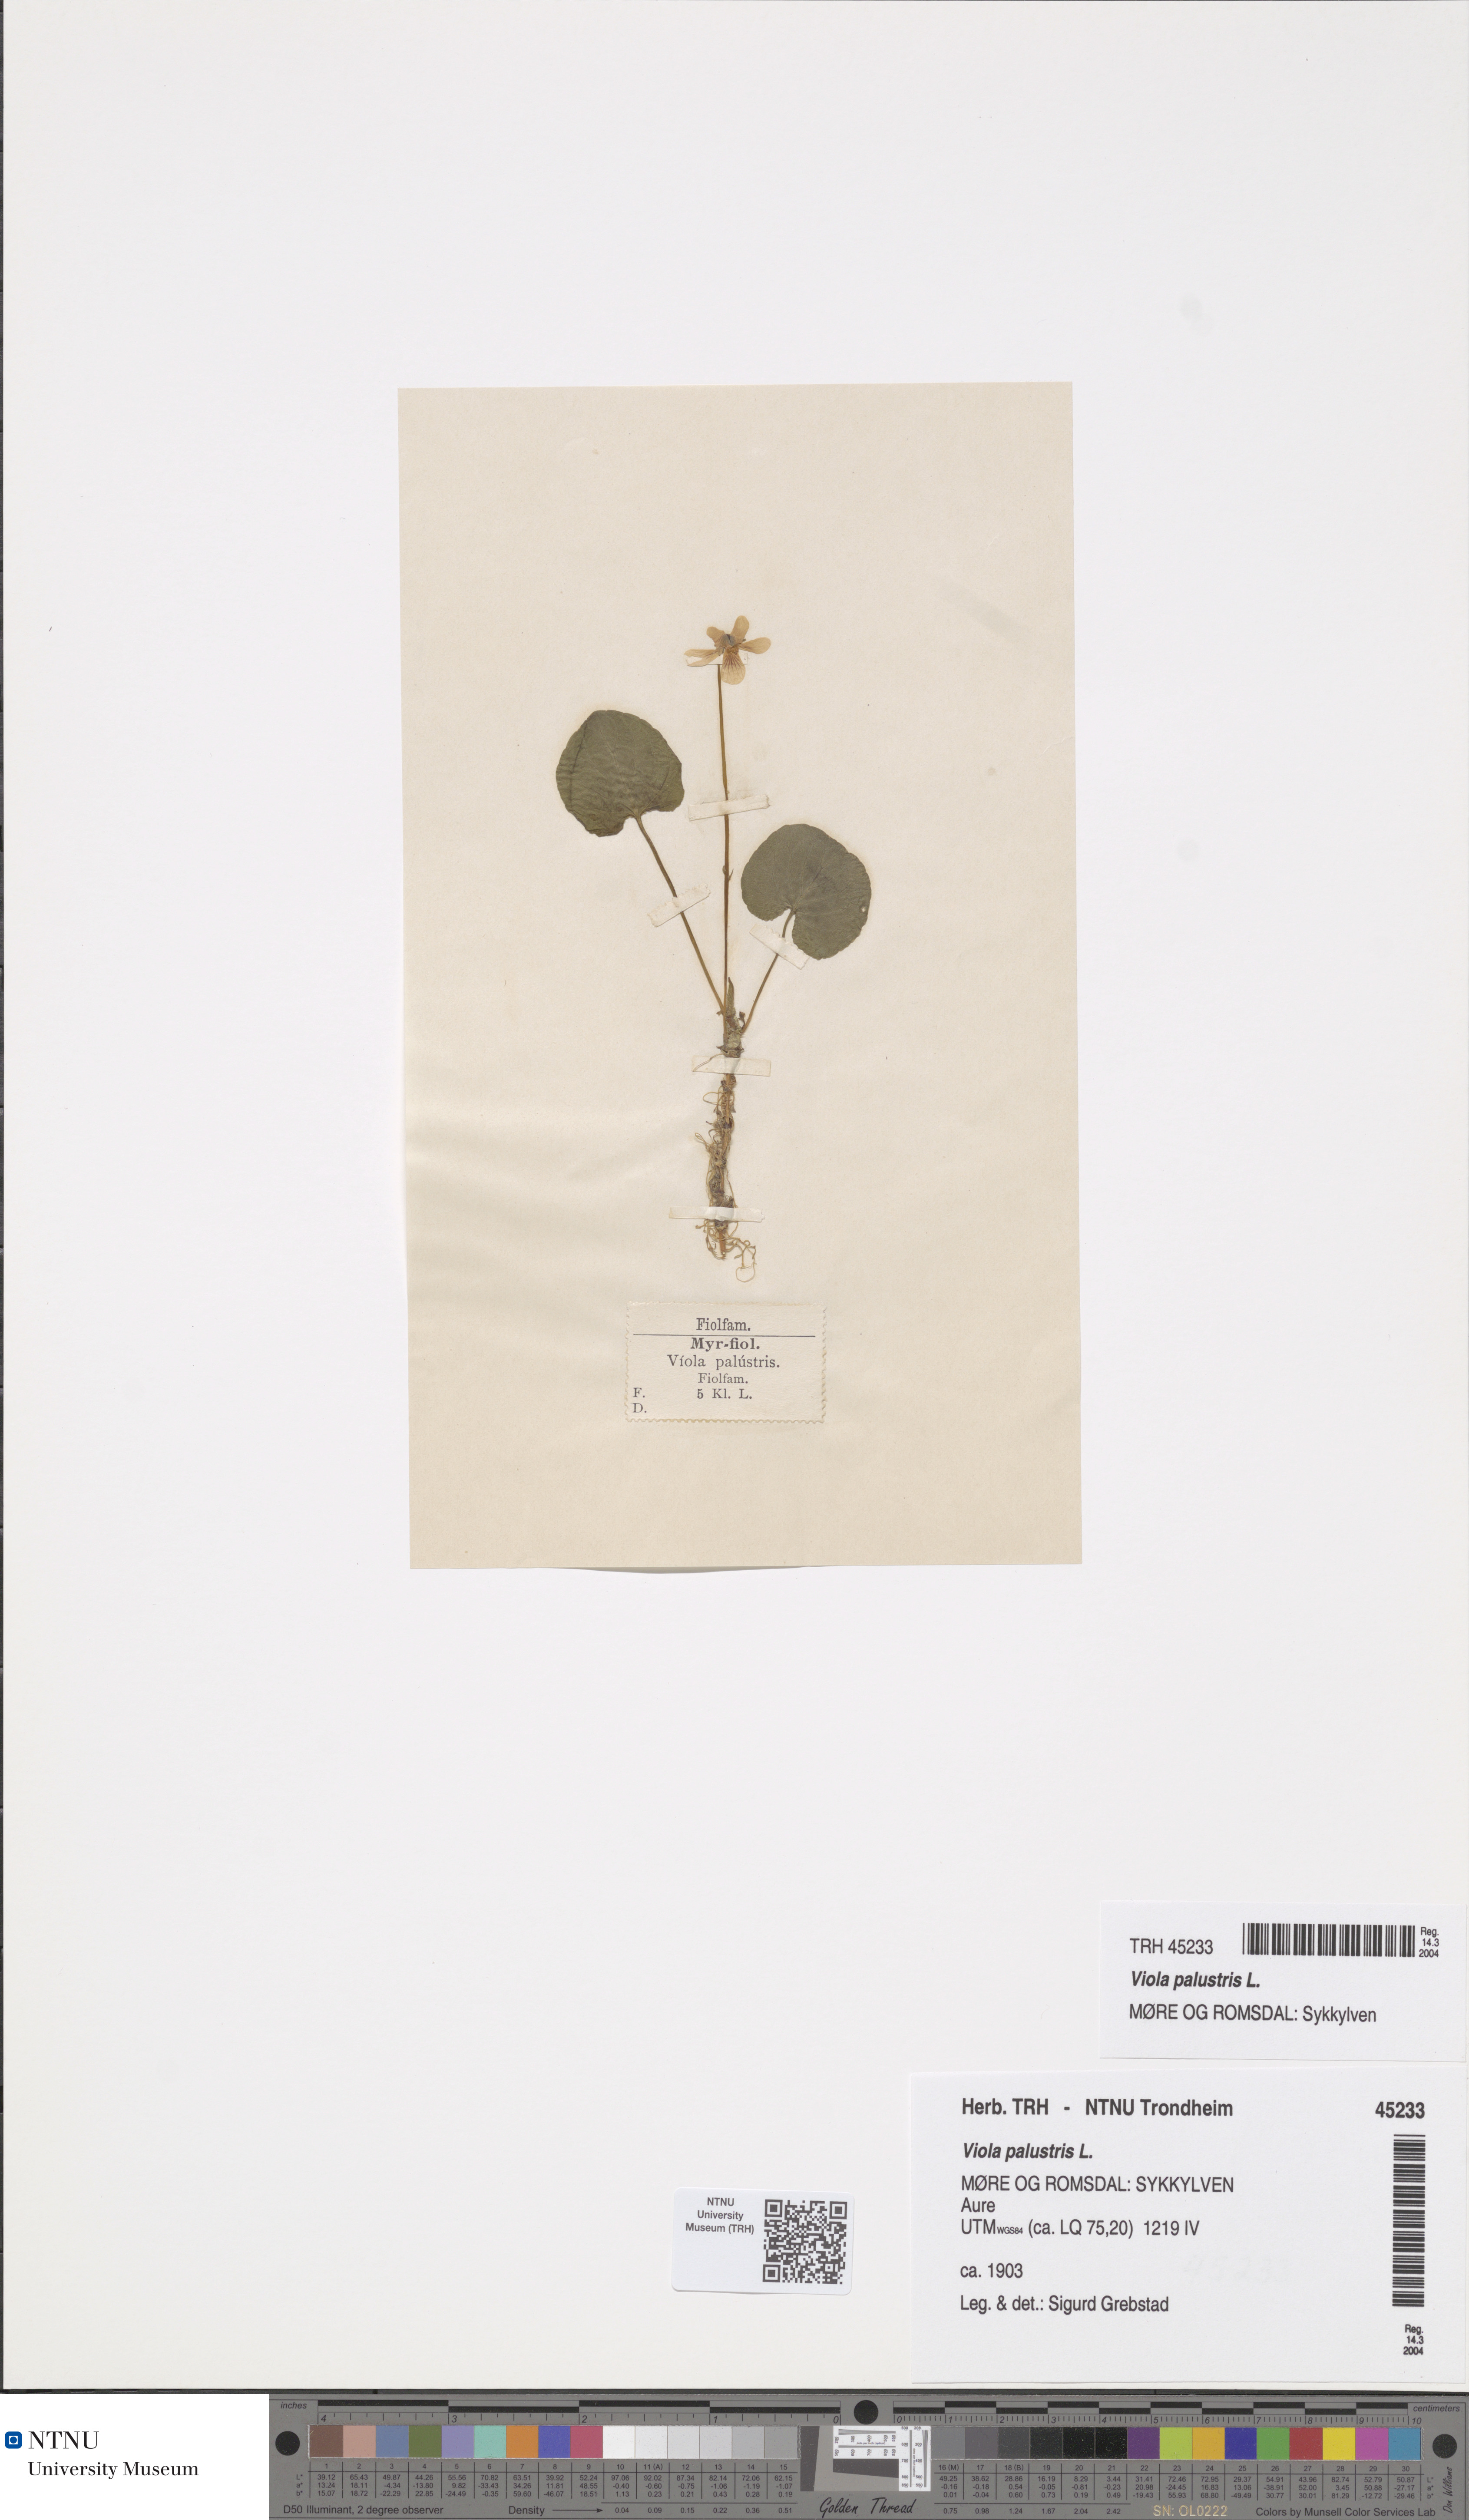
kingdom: Plantae
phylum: Tracheophyta
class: Magnoliopsida
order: Malpighiales
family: Violaceae
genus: Viola
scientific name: Viola palustris
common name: Marsh violet
